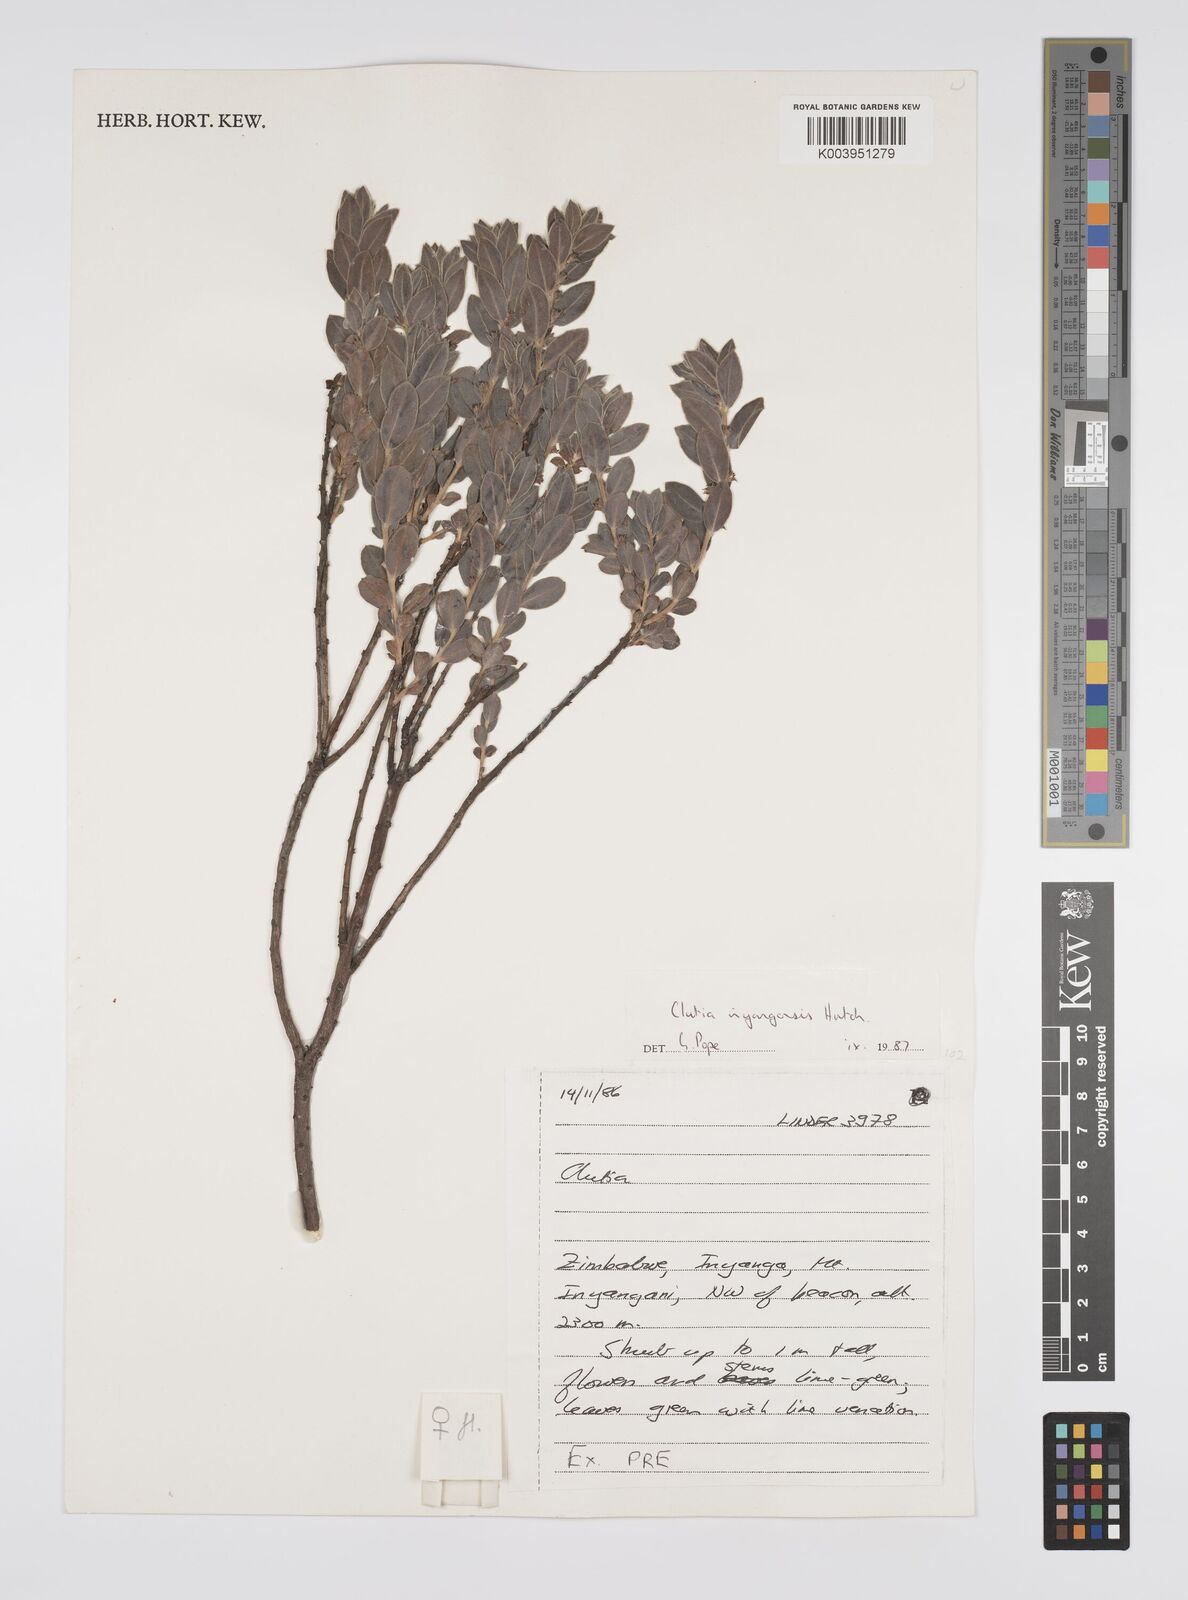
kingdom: Plantae
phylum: Tracheophyta
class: Magnoliopsida
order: Malpighiales
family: Peraceae
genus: Clutia
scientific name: Clutia
